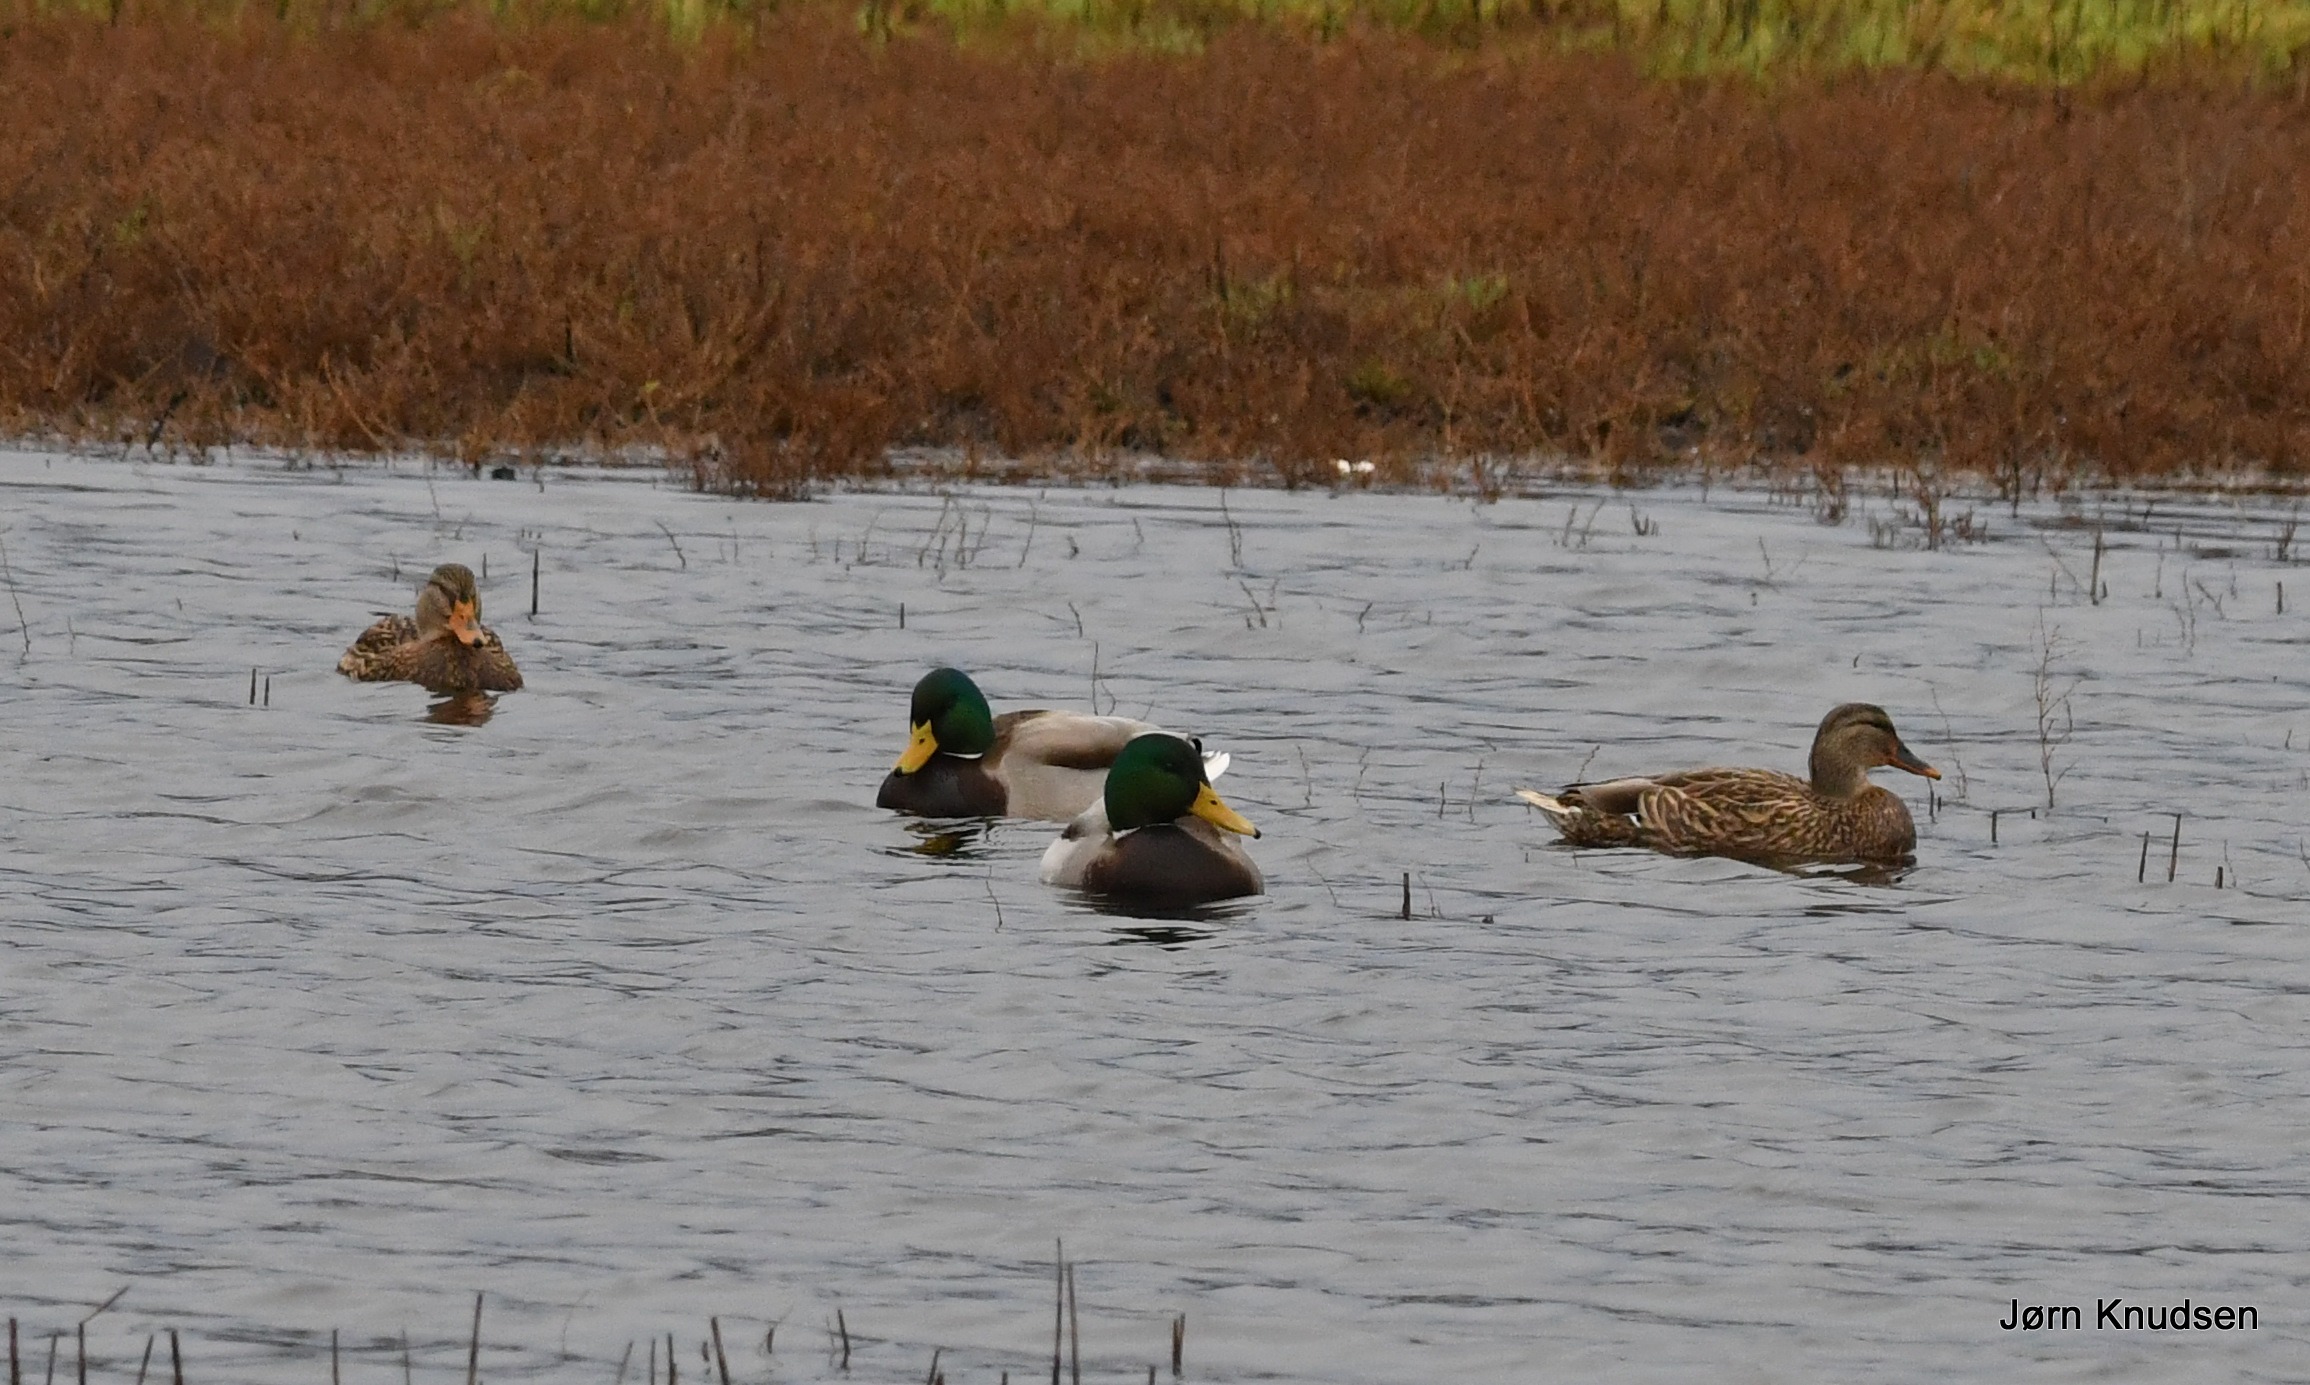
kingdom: Animalia
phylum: Chordata
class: Aves
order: Anseriformes
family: Anatidae
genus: Anas
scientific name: Anas platyrhynchos
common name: Gråand
